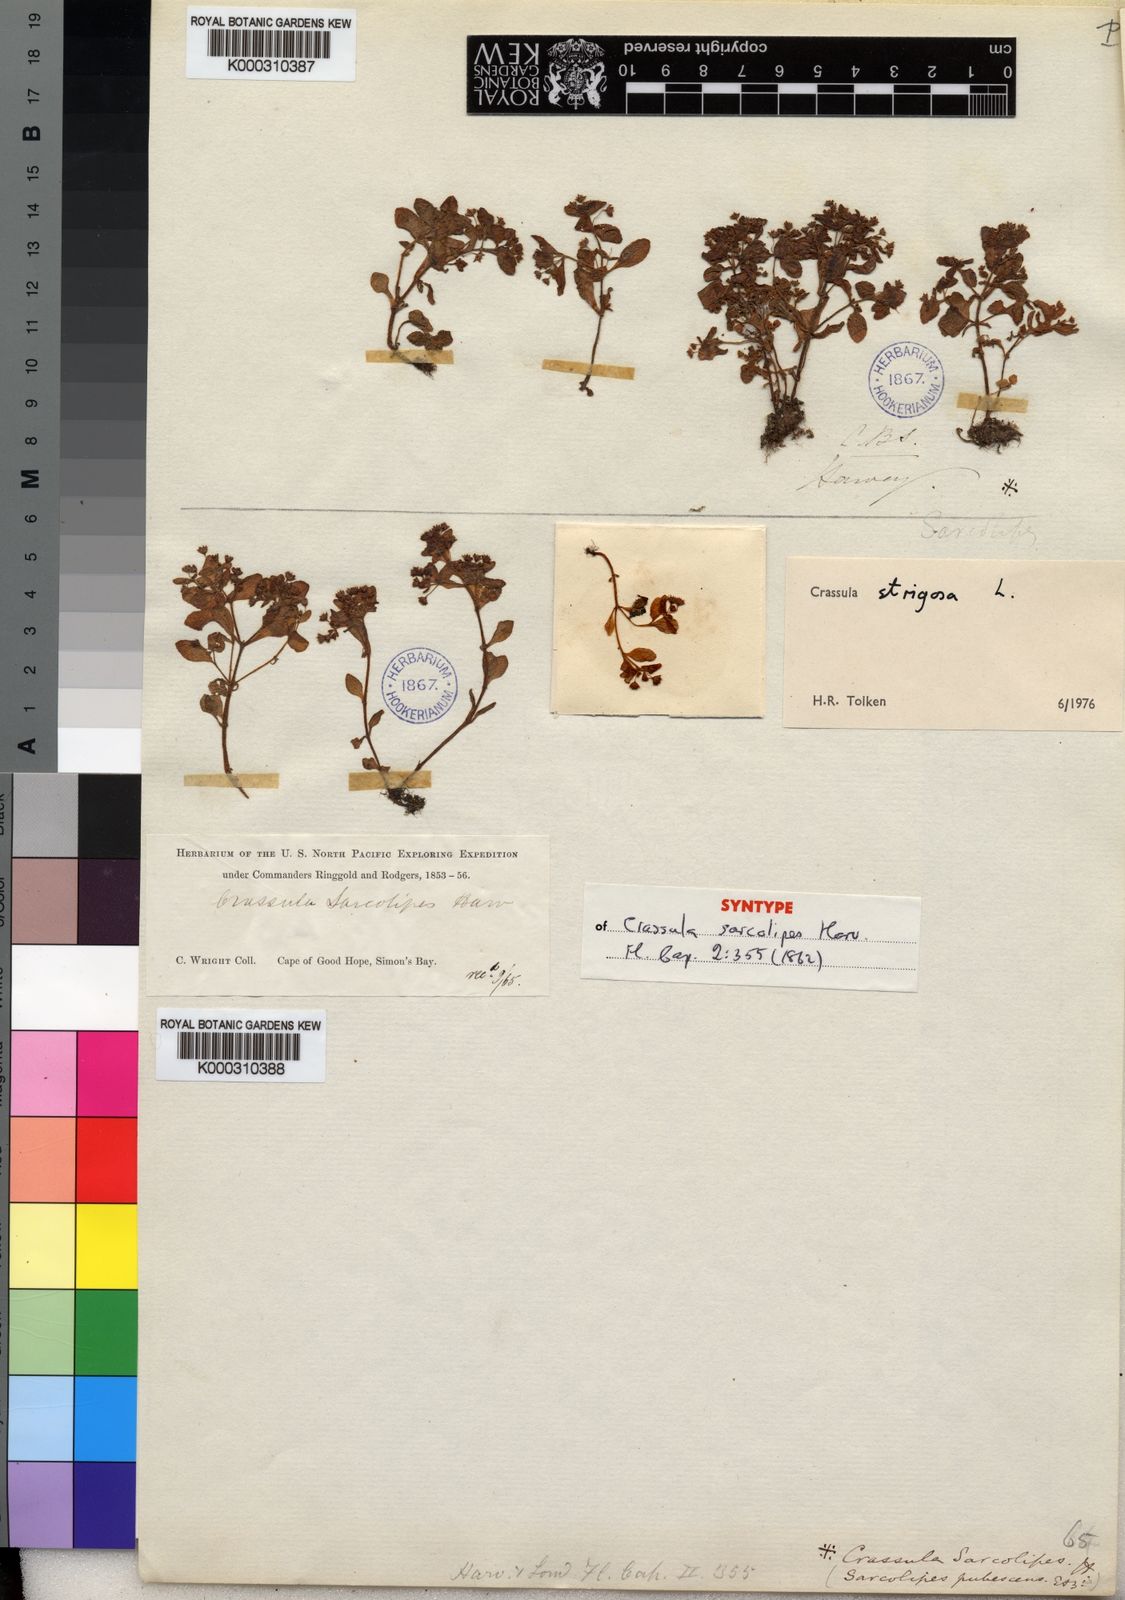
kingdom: Plantae
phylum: Tracheophyta
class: Magnoliopsida
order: Saxifragales
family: Crassulaceae
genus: Crassula
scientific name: Crassula strigosa
